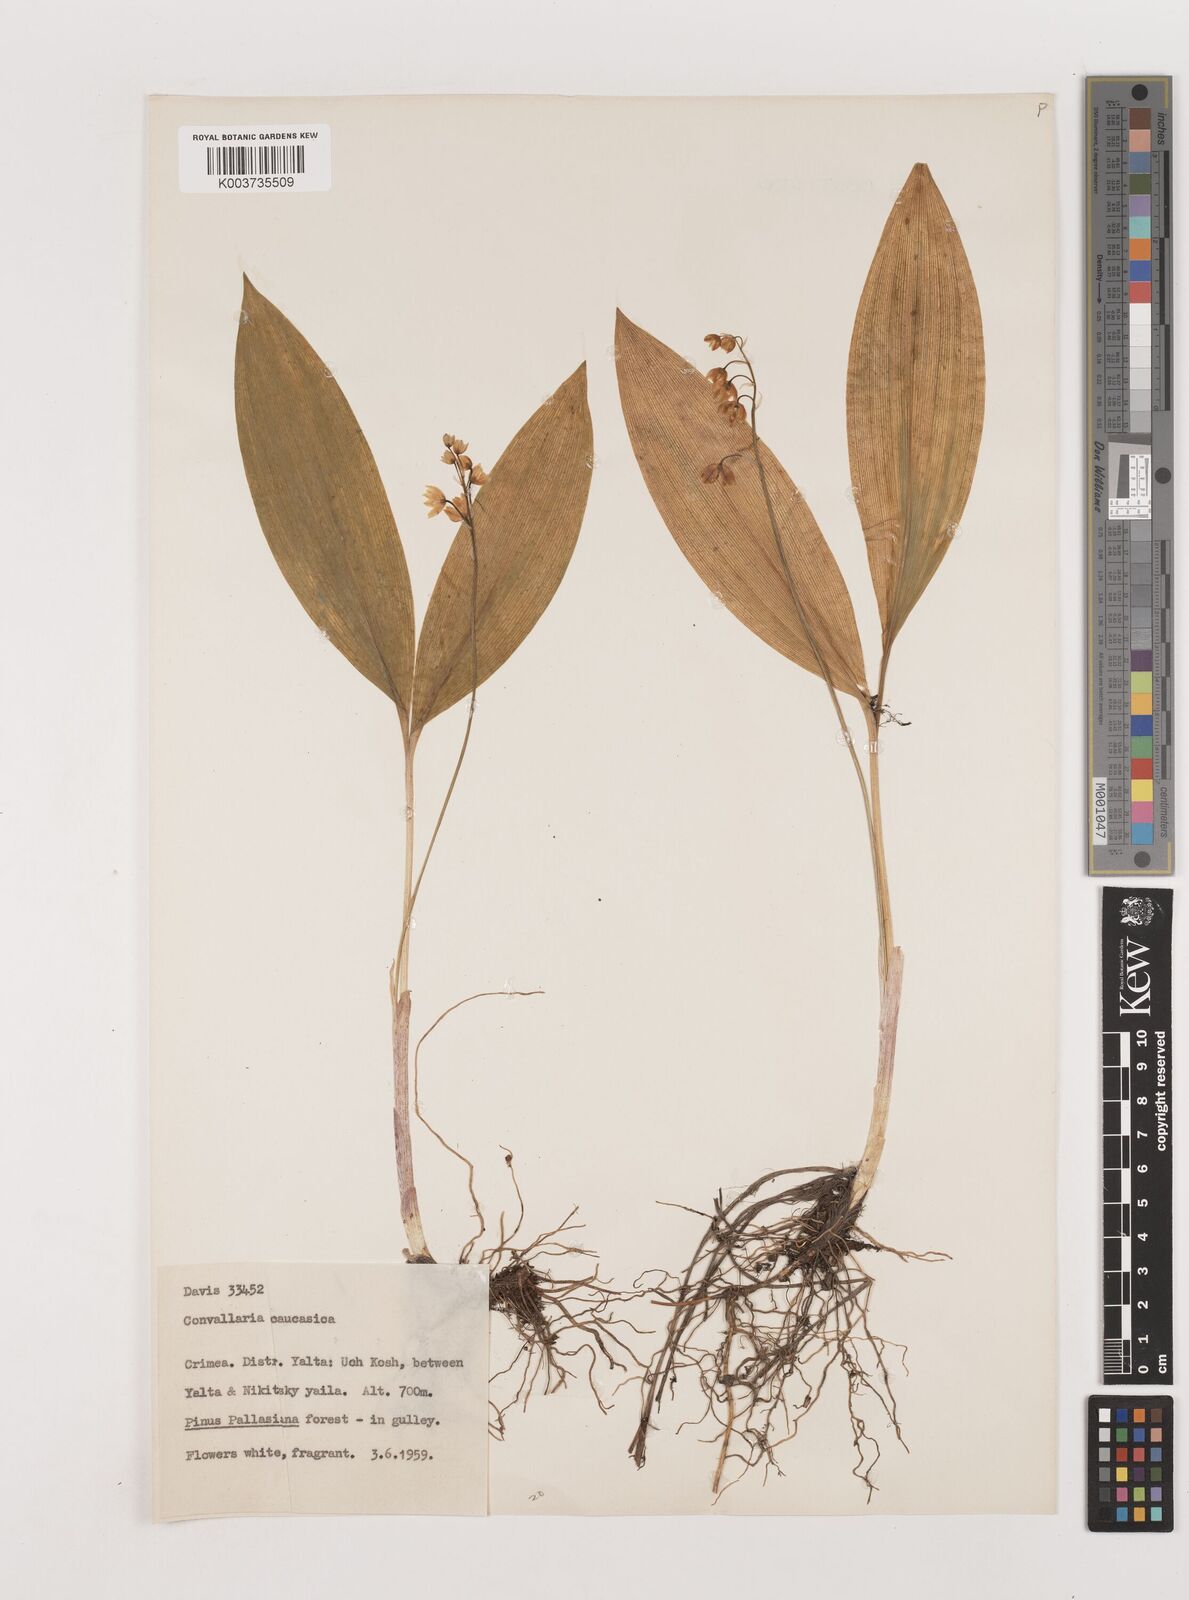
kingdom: Plantae
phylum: Tracheophyta
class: Liliopsida
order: Asparagales
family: Asparagaceae
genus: Convallaria
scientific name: Convallaria
